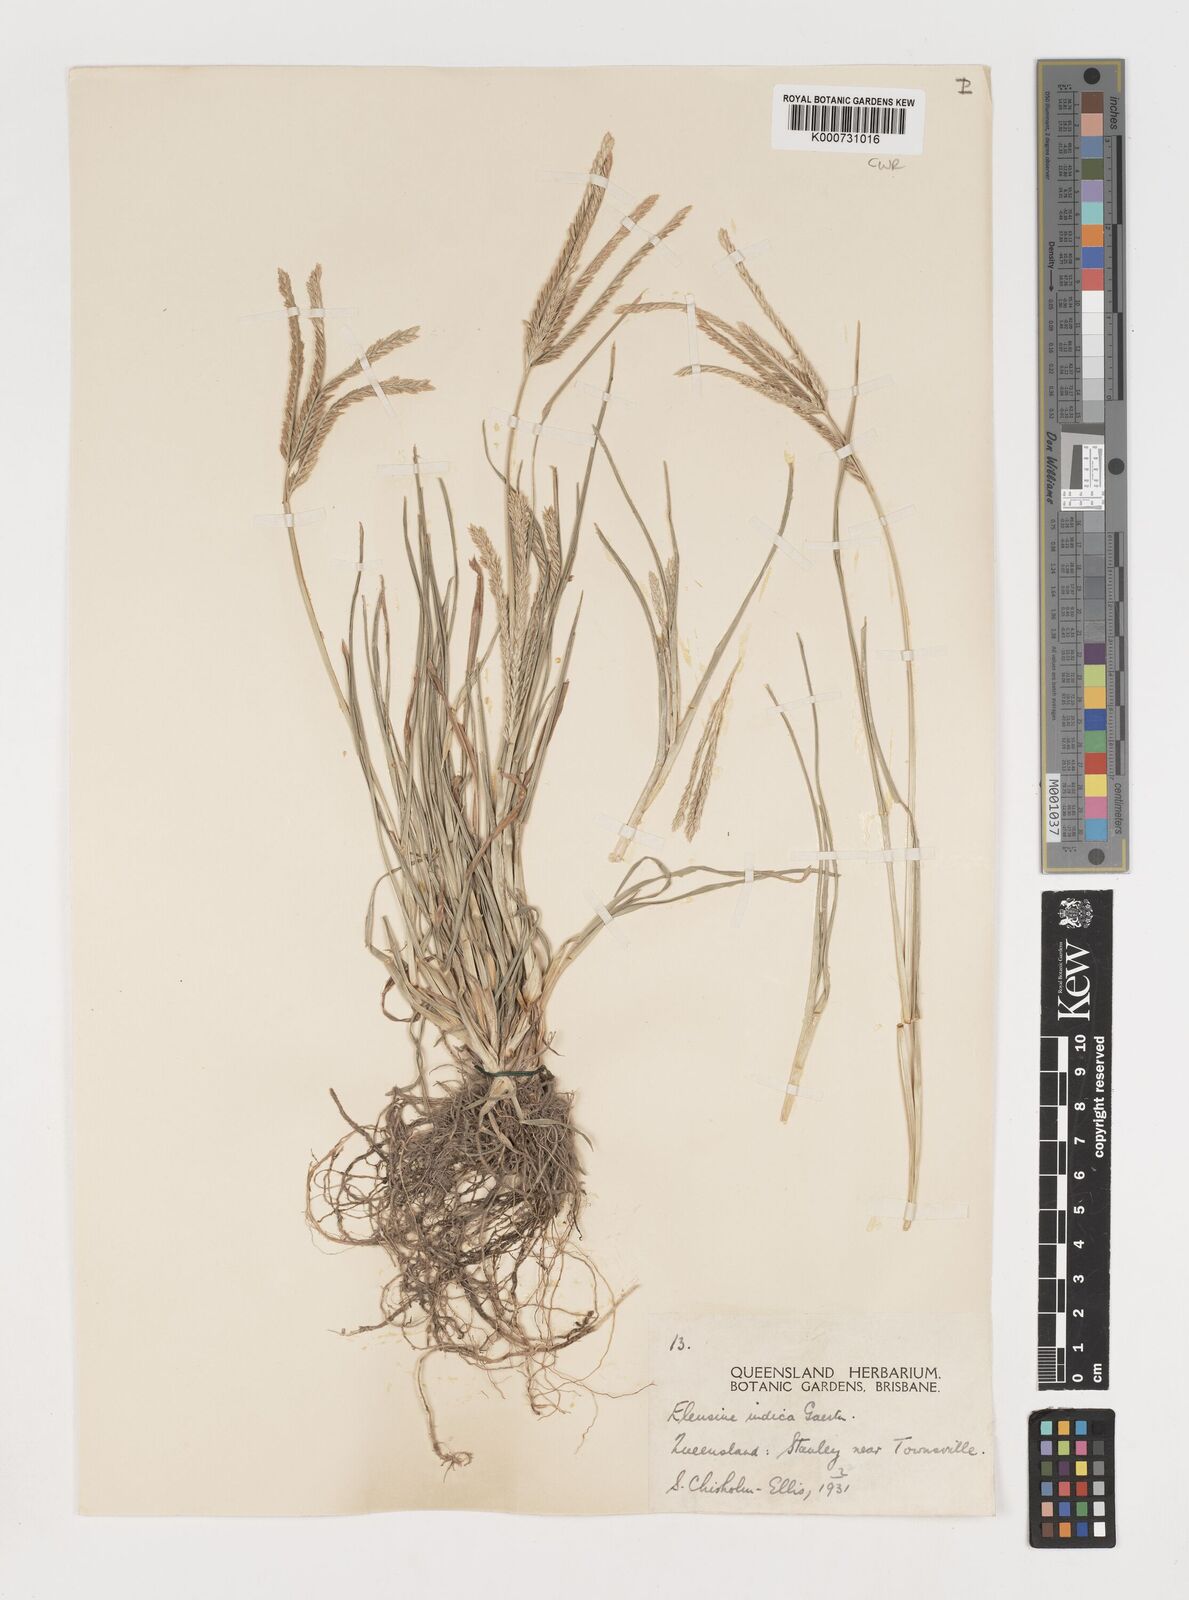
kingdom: Plantae
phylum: Tracheophyta
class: Liliopsida
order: Poales
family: Poaceae
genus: Eleusine
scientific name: Eleusine indica
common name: Yard-grass
